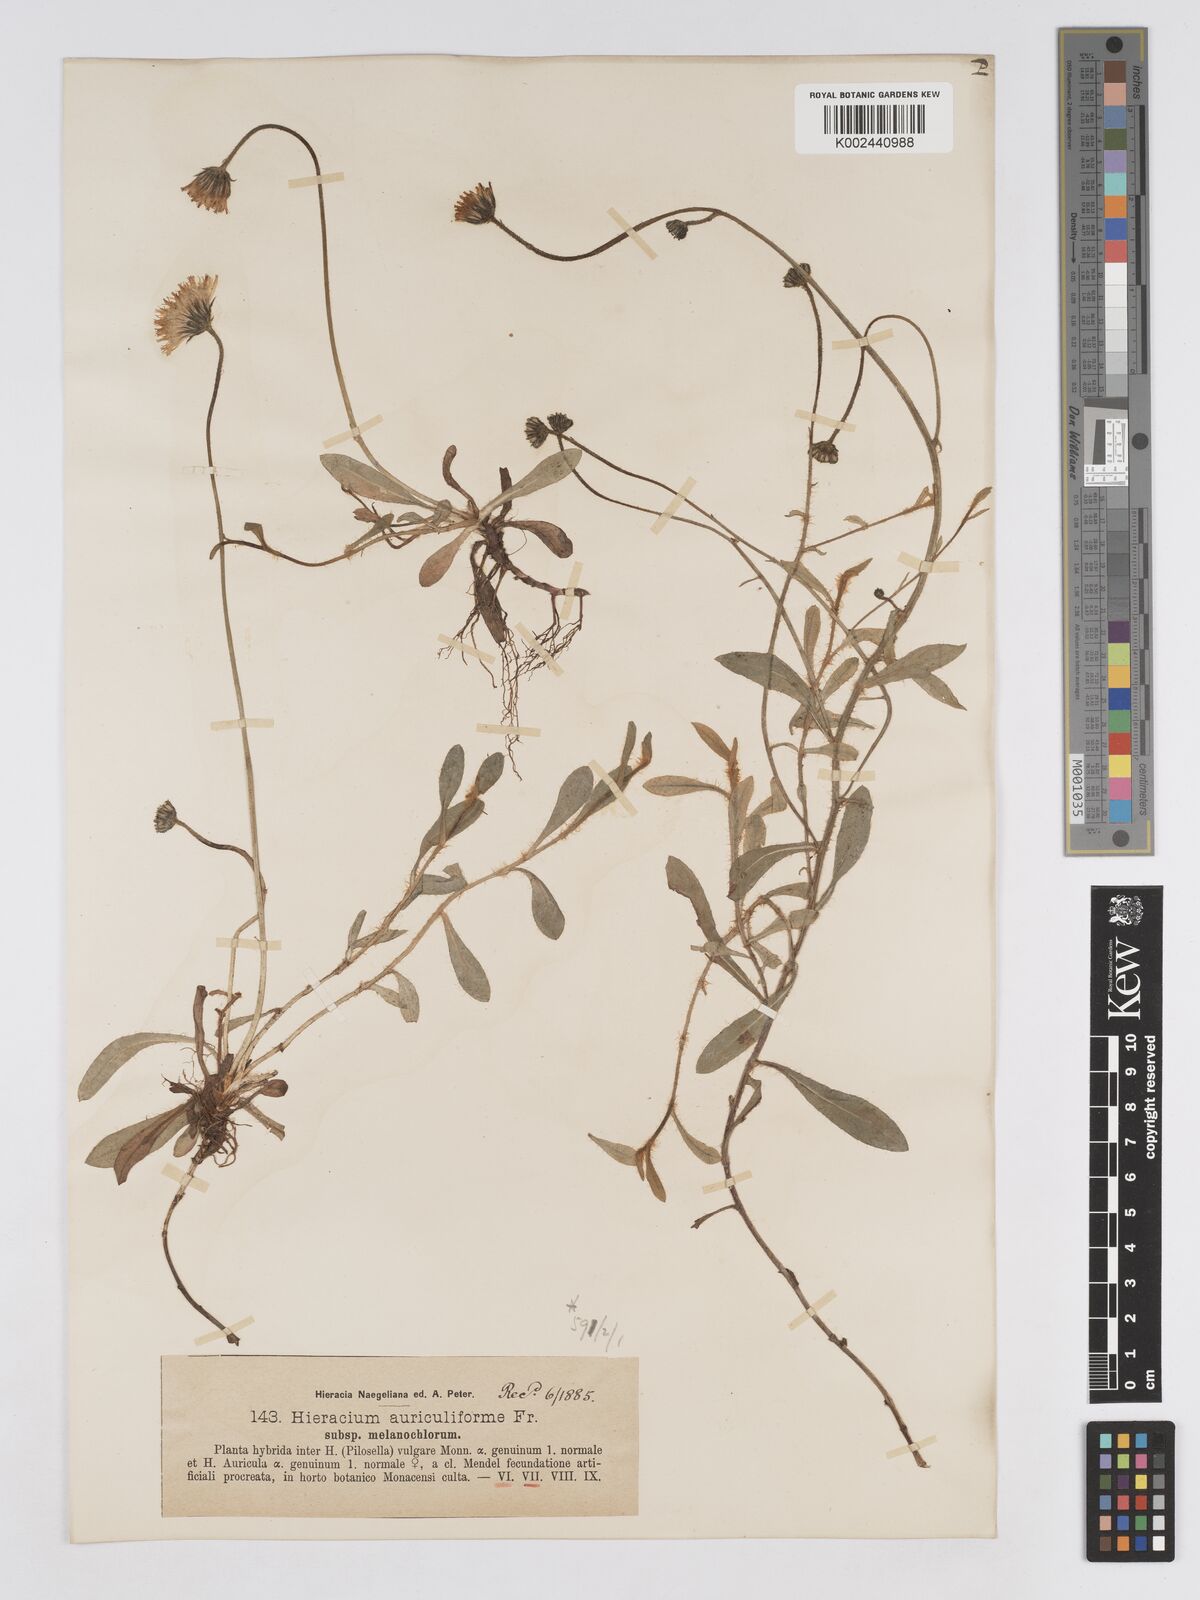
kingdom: Plantae
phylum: Tracheophyta
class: Magnoliopsida
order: Asterales
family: Asteraceae
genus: Pilosella
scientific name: Pilosella schultesii
